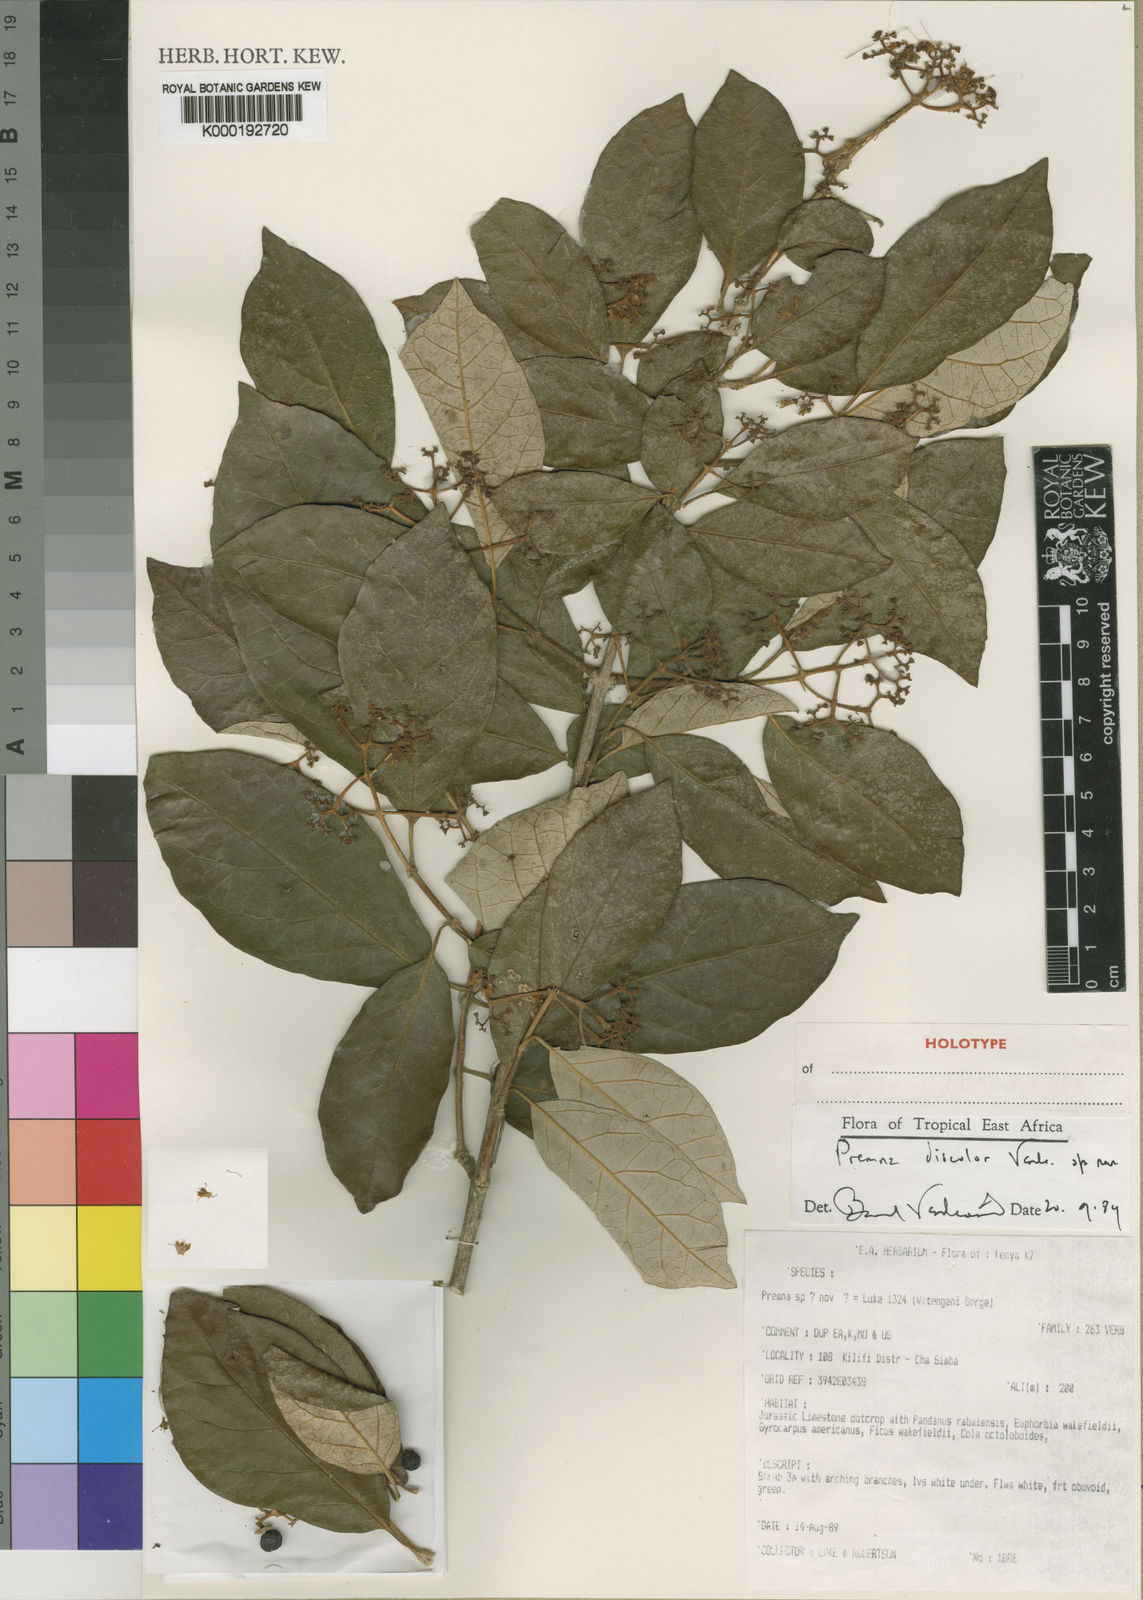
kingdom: Plantae
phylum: Tracheophyta
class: Magnoliopsida
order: Lamiales
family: Lamiaceae
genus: Premna
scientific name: Premna discolor
